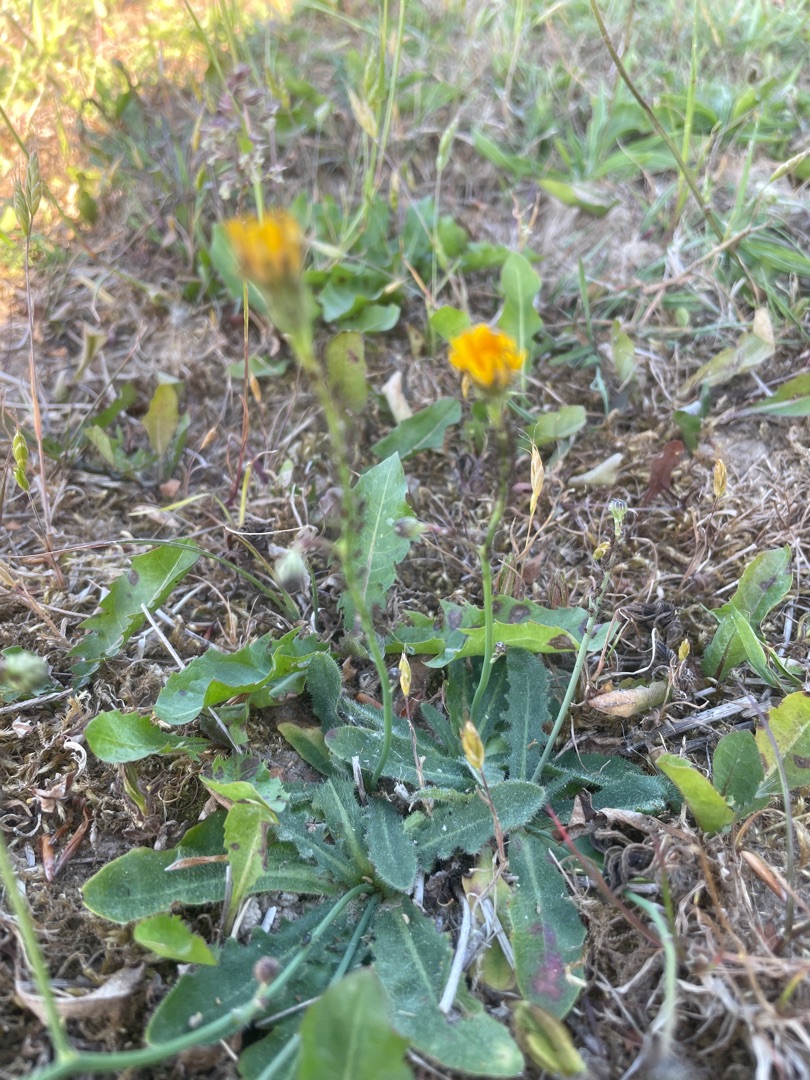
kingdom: Plantae
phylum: Tracheophyta
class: Magnoliopsida
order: Asterales
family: Asteraceae
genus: Hypochaeris
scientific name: Hypochaeris radicata
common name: Almindelig kongepen
